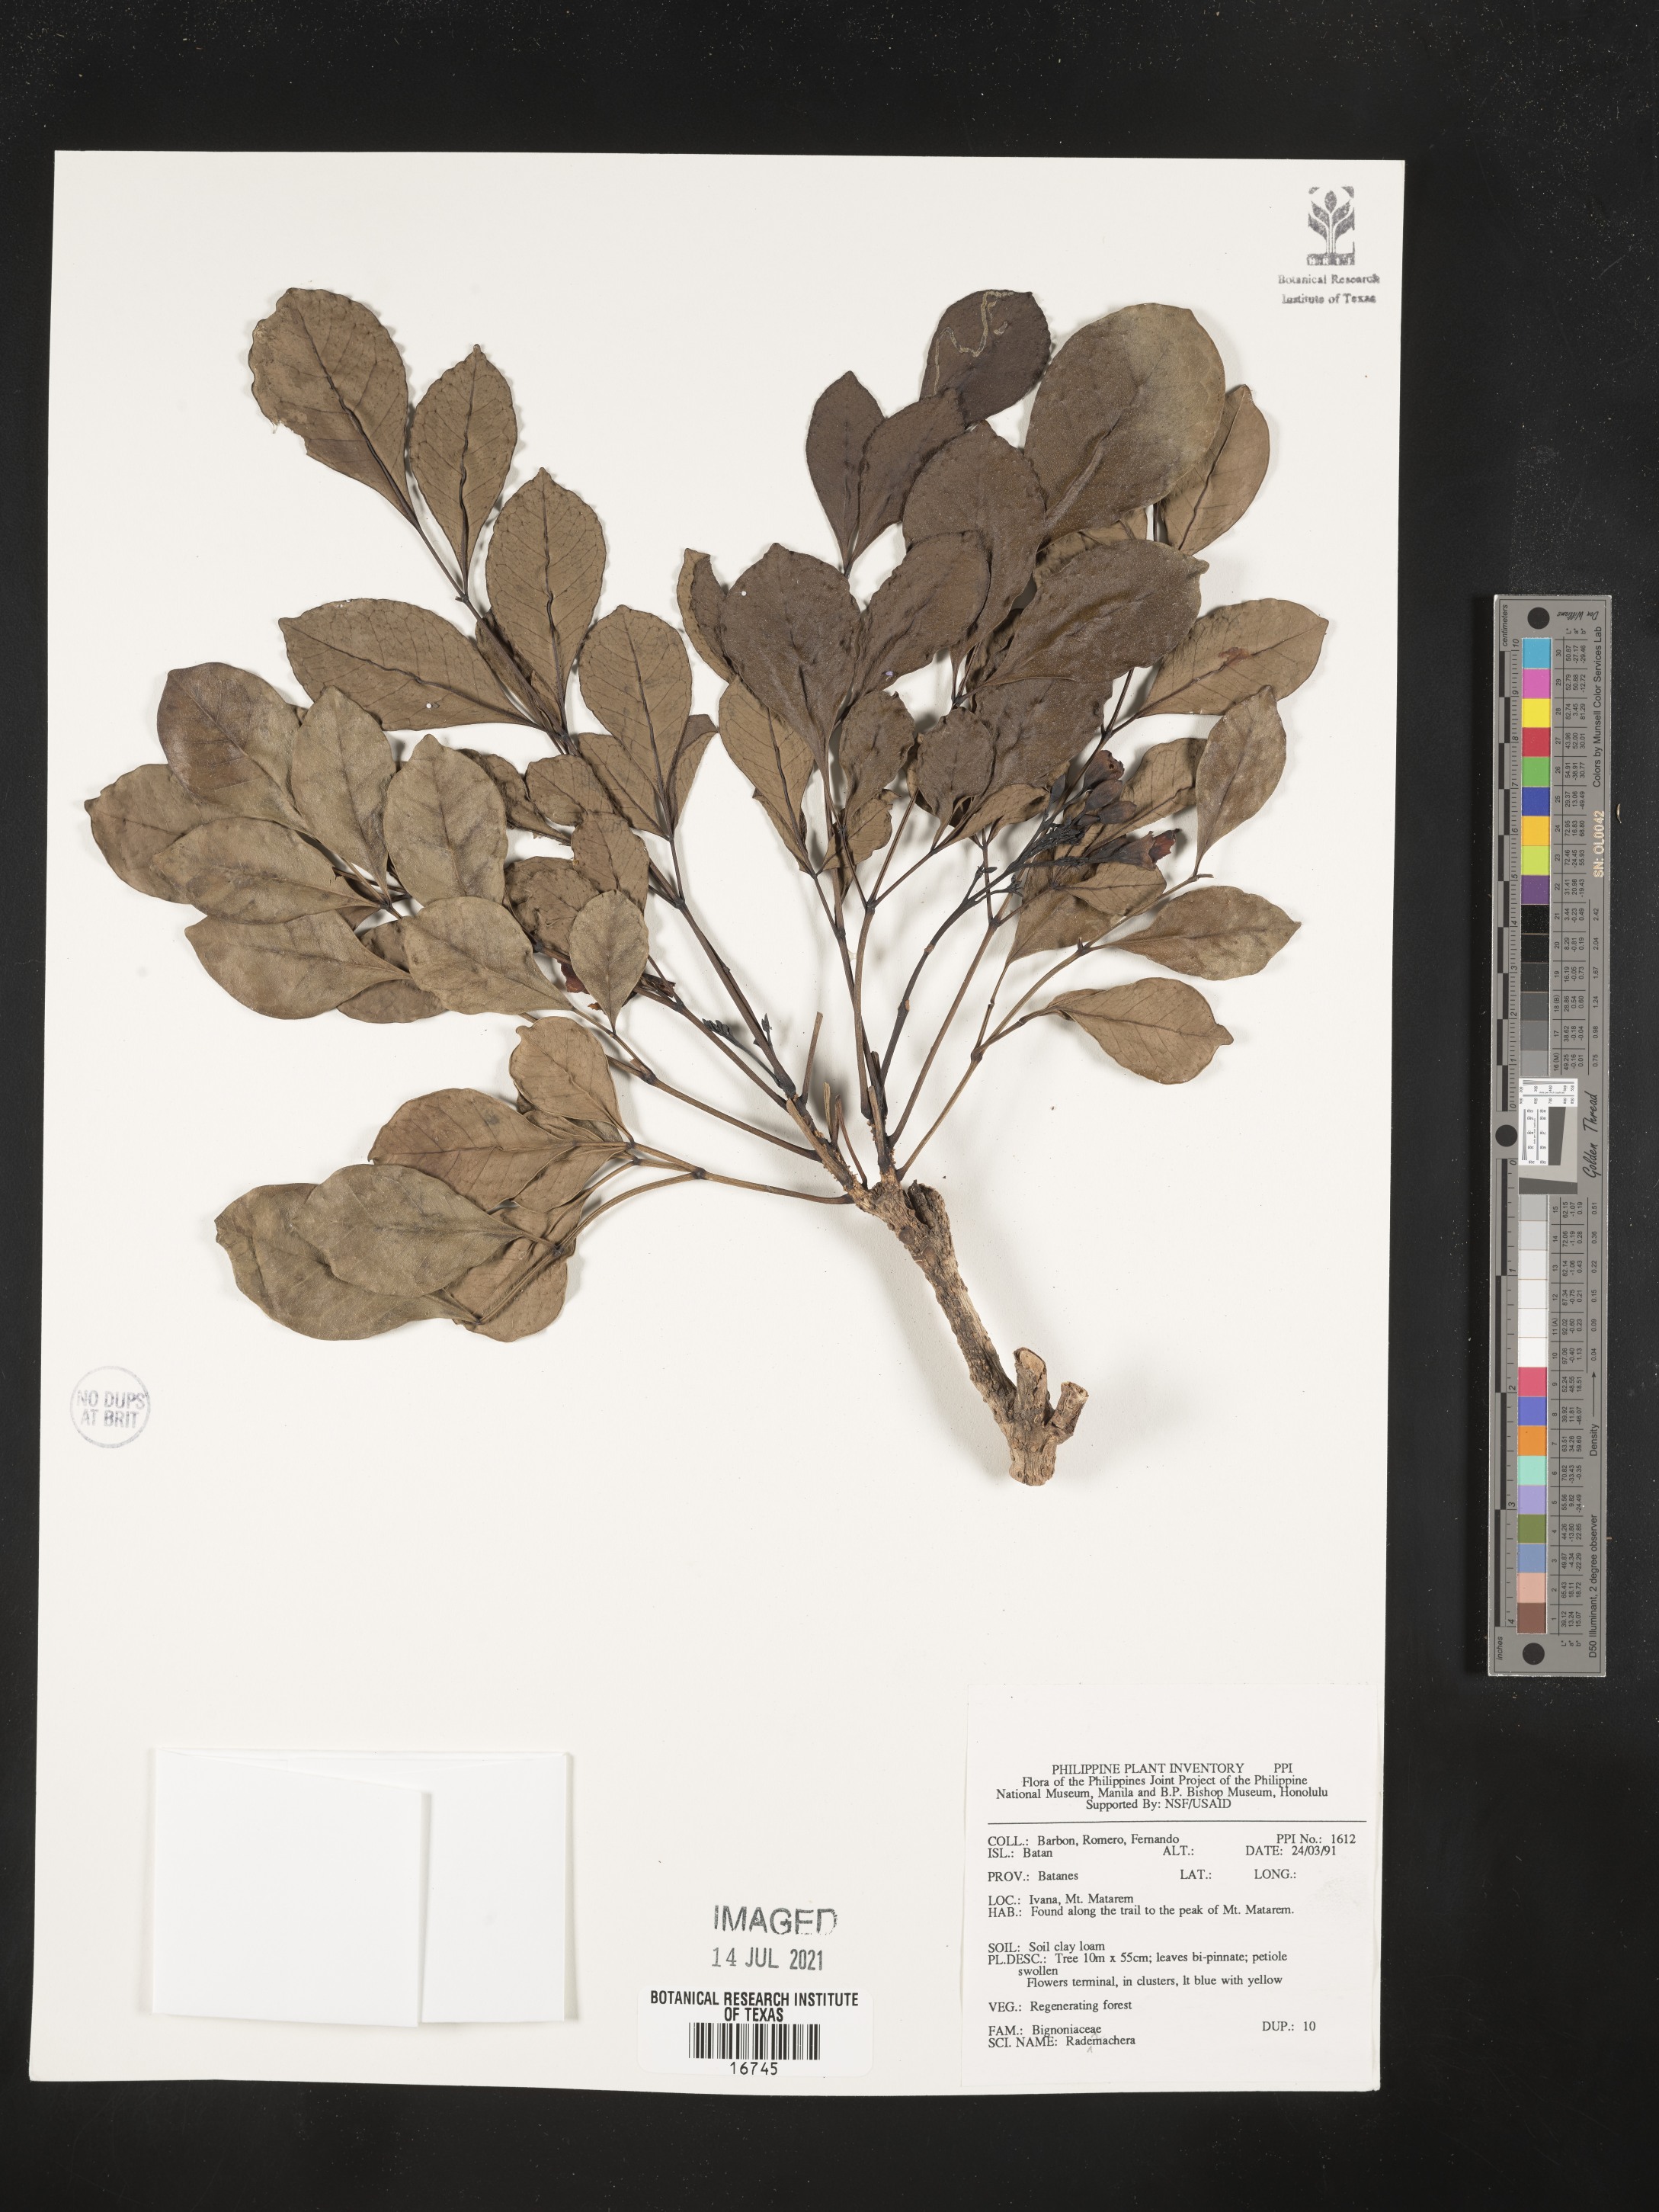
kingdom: Plantae
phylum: Tracheophyta
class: Magnoliopsida
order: Lamiales
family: Bignoniaceae
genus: Radermachera
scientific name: Radermachera
